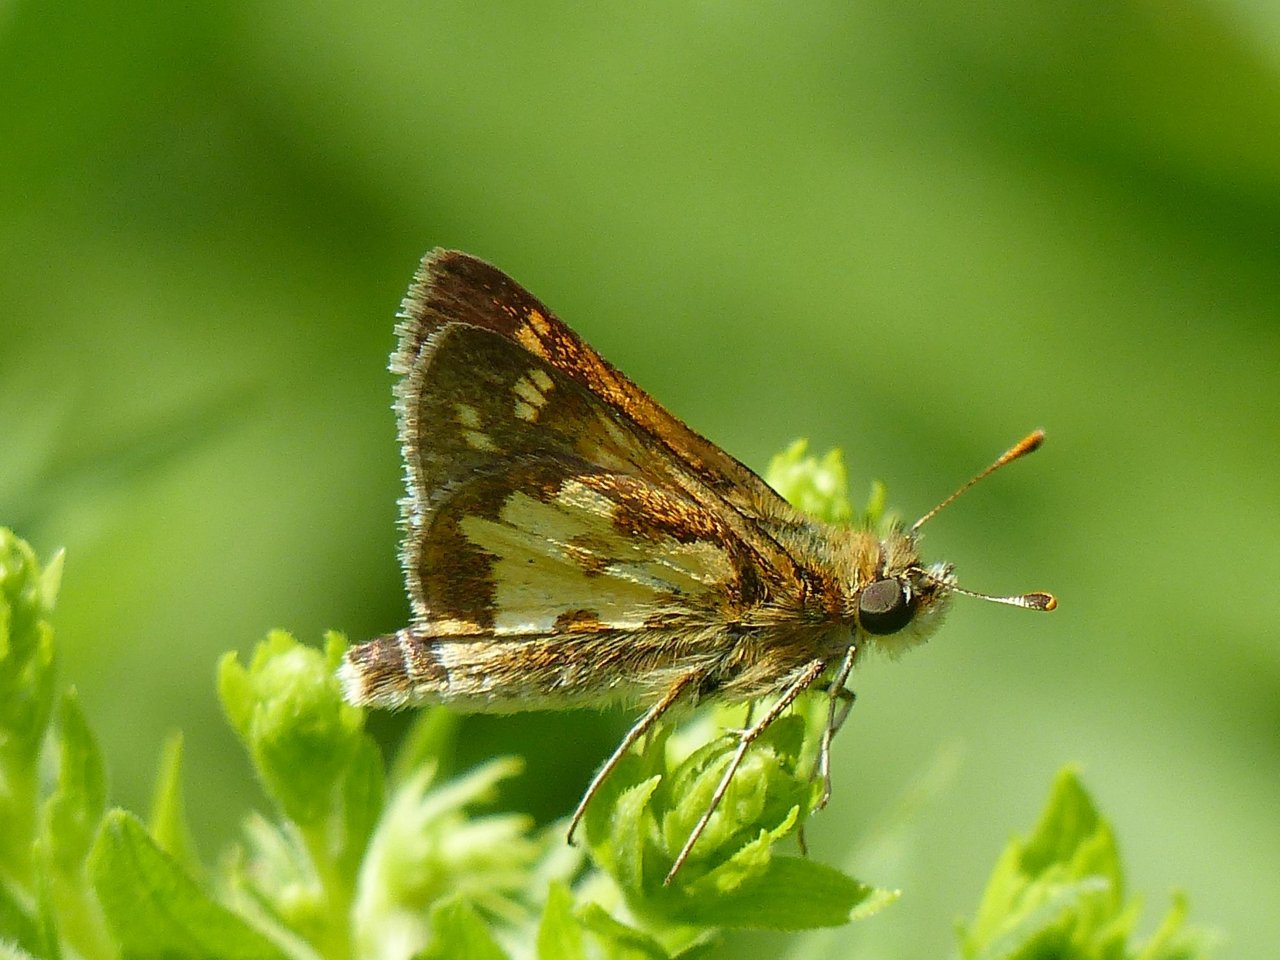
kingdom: Animalia
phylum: Arthropoda
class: Insecta
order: Lepidoptera
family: Hesperiidae
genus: Polites
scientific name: Polites coras
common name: Peck's Skipper
